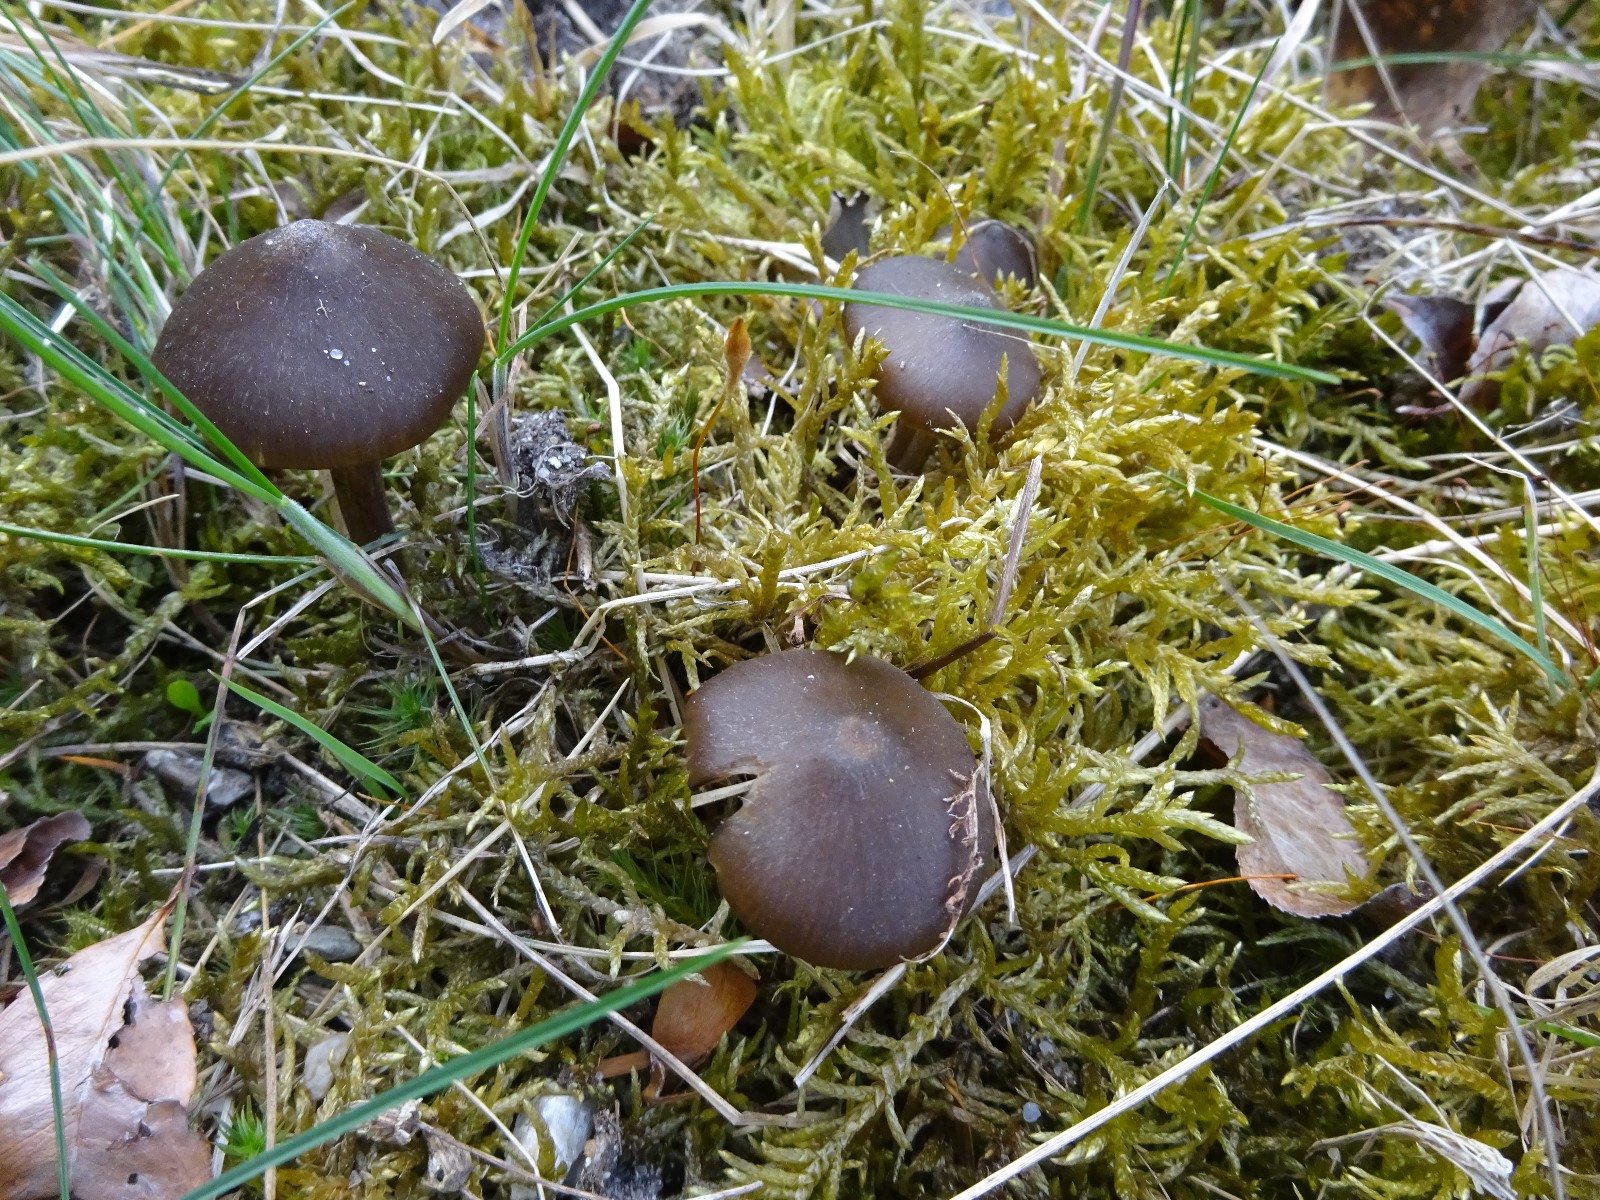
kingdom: Fungi
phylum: Basidiomycota
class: Agaricomycetes
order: Agaricales
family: Entolomataceae
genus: Entoloma
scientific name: Entoloma vernum
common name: vår-rødblad
